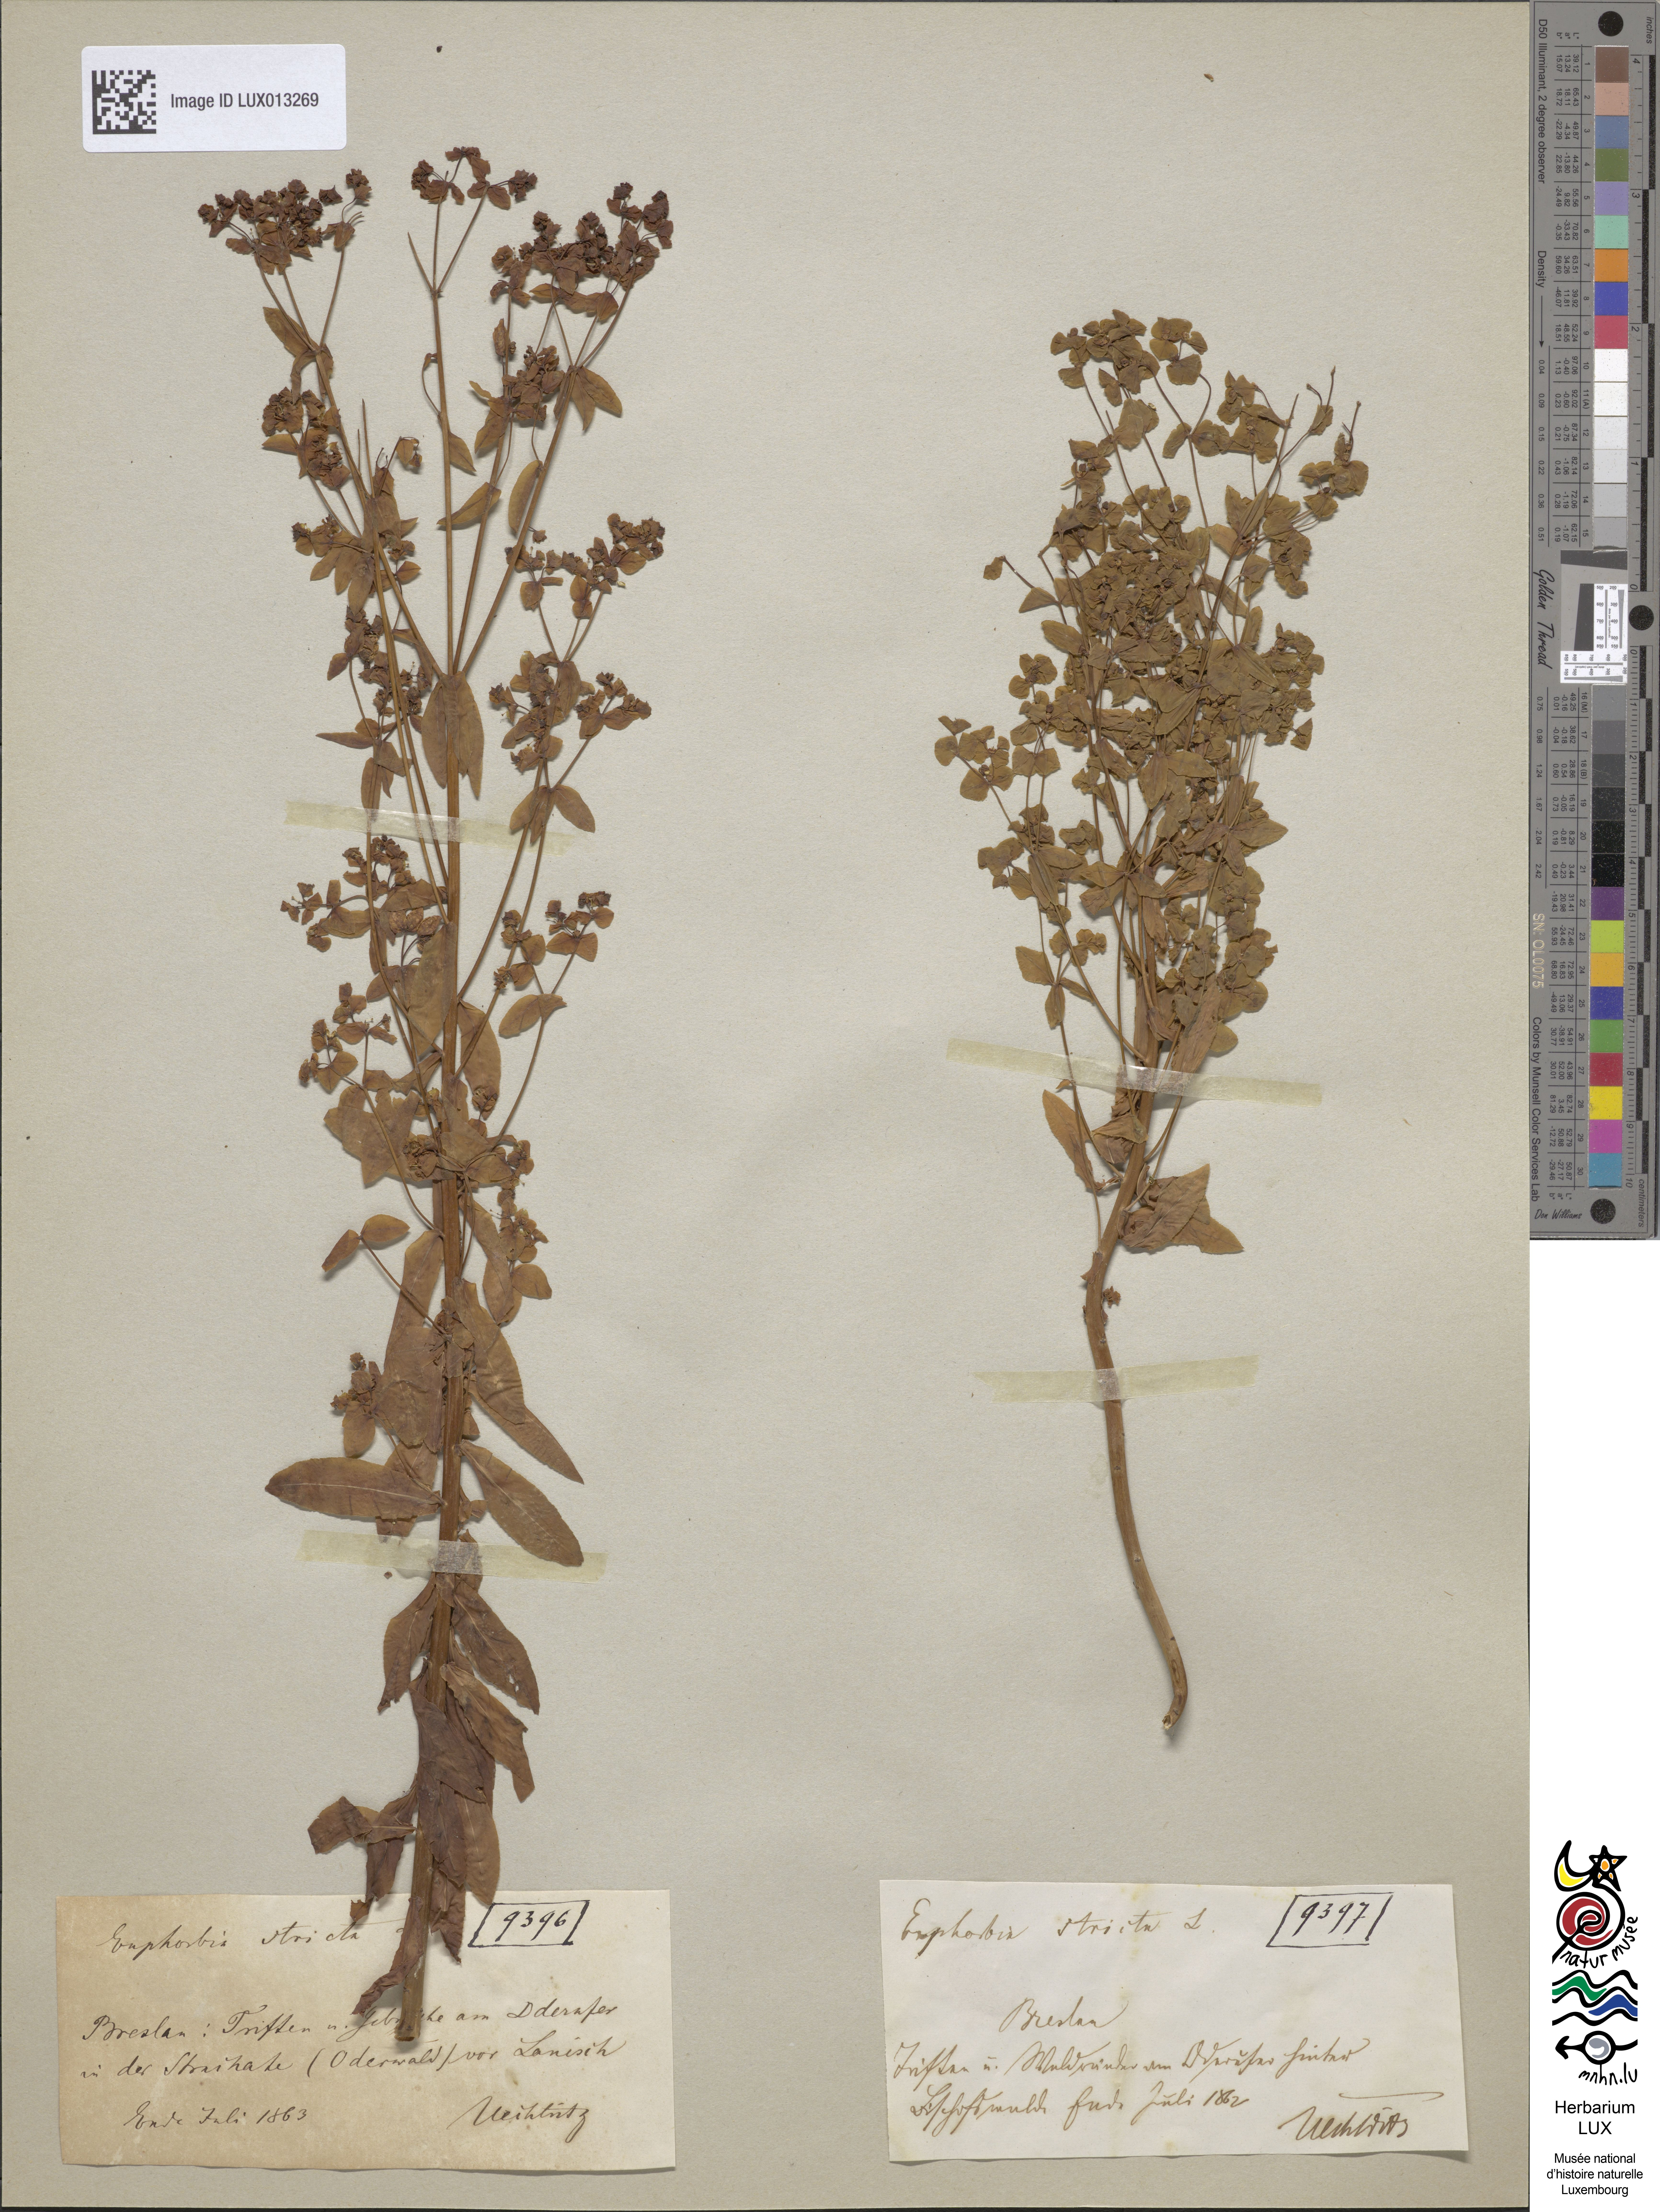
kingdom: Plantae
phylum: Tracheophyta
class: Magnoliopsida
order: Malpighiales
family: Euphorbiaceae
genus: Euphorbia
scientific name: Euphorbia stricta
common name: Upright spurge
